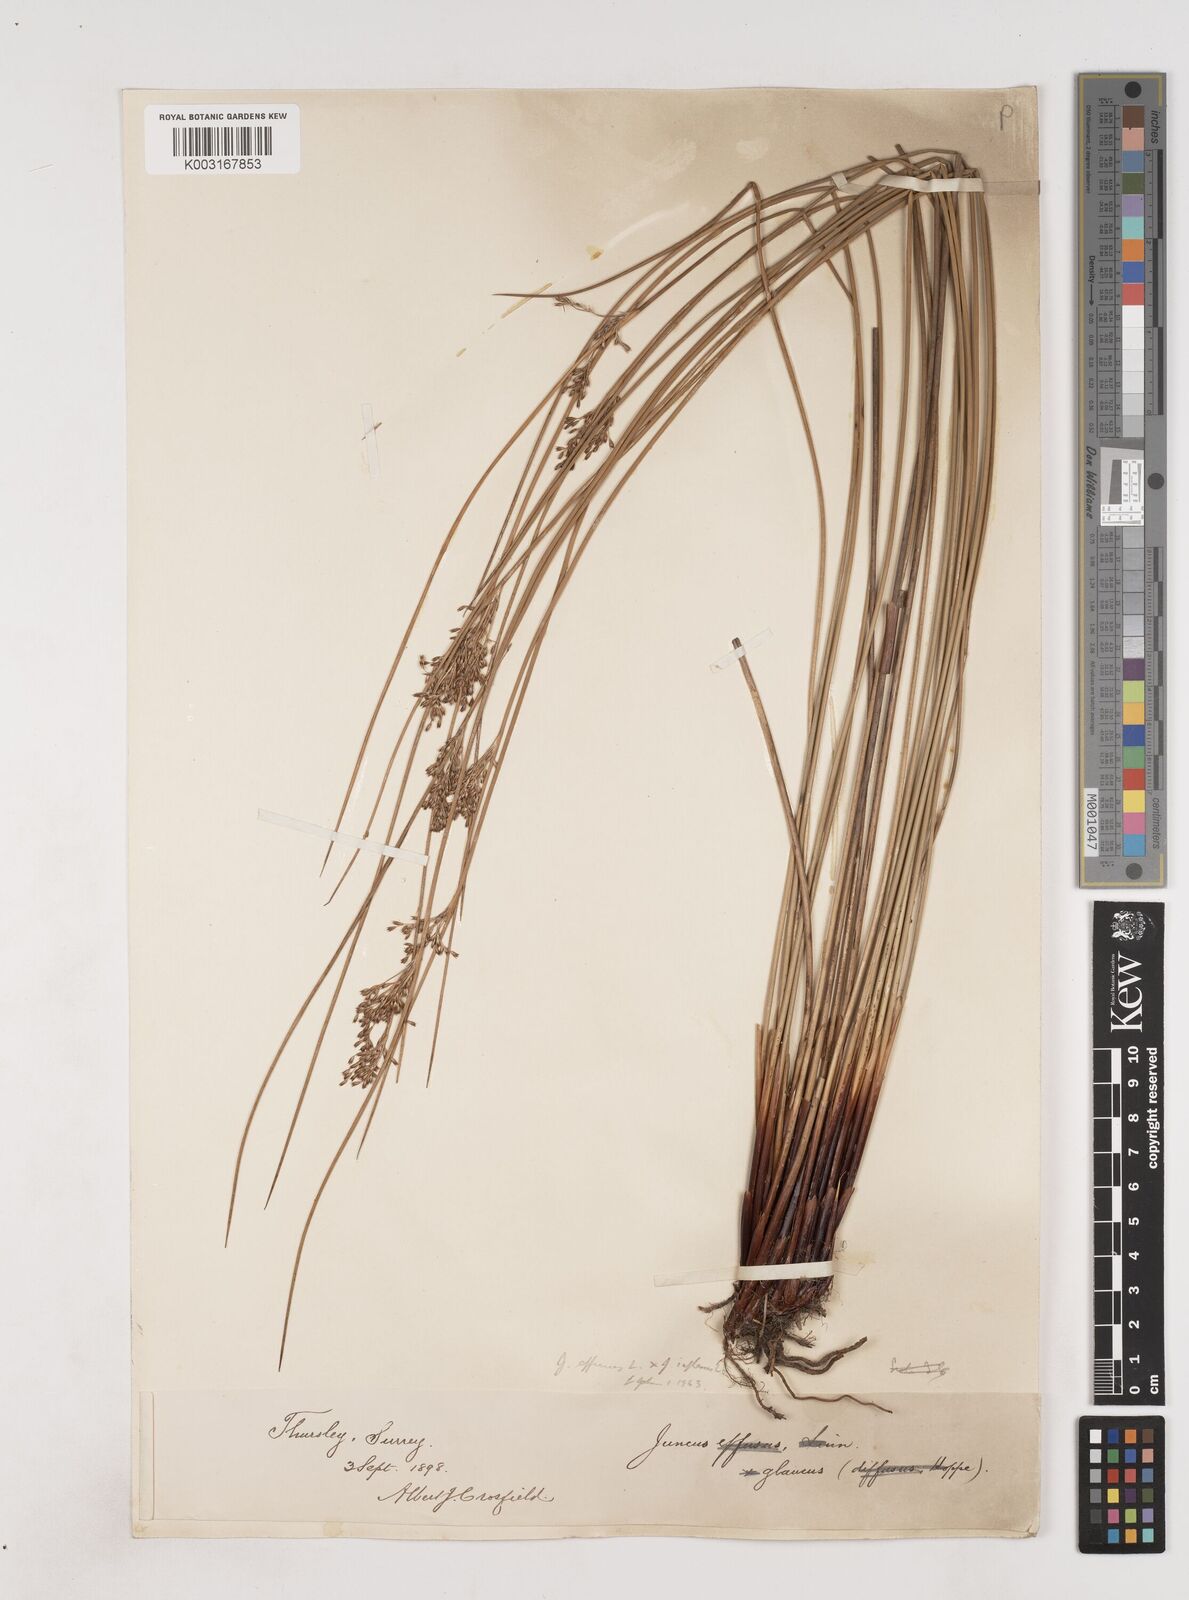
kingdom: Plantae
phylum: Tracheophyta
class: Liliopsida
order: Poales
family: Juncaceae
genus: Juncus
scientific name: Juncus effusus
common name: Soft rush
